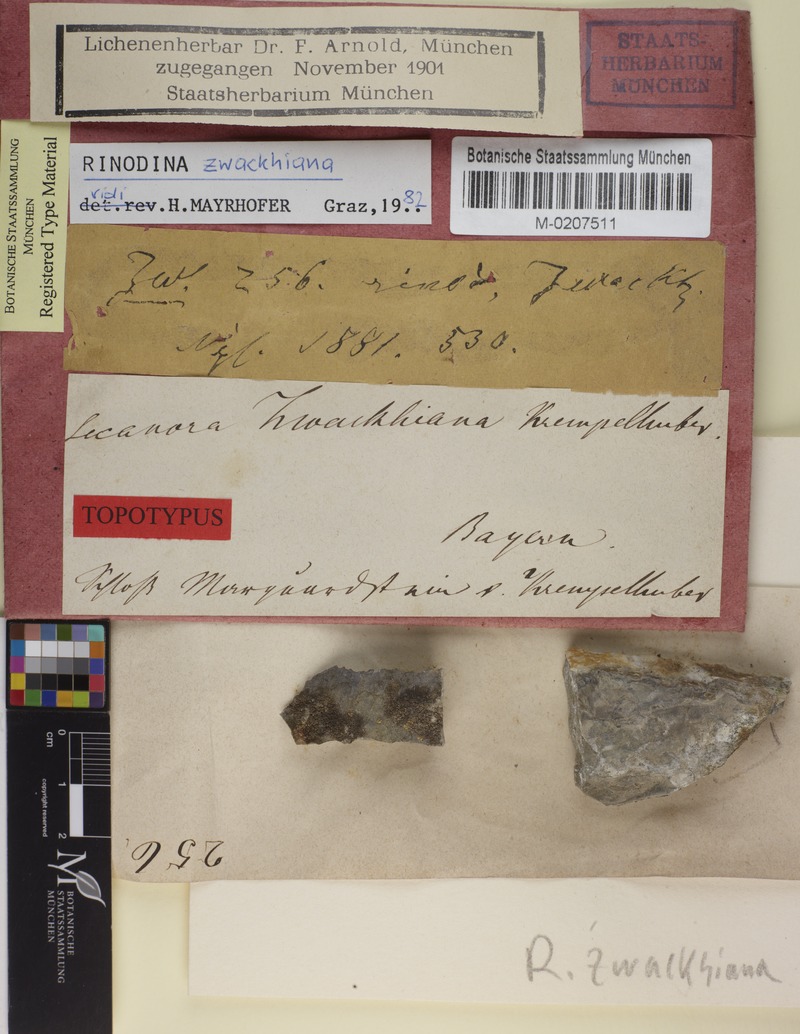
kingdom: Fungi
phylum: Ascomycota
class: Lecanoromycetes
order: Caliciales
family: Physciaceae
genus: Johnsheardia
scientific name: Johnsheardia zwackhiana
